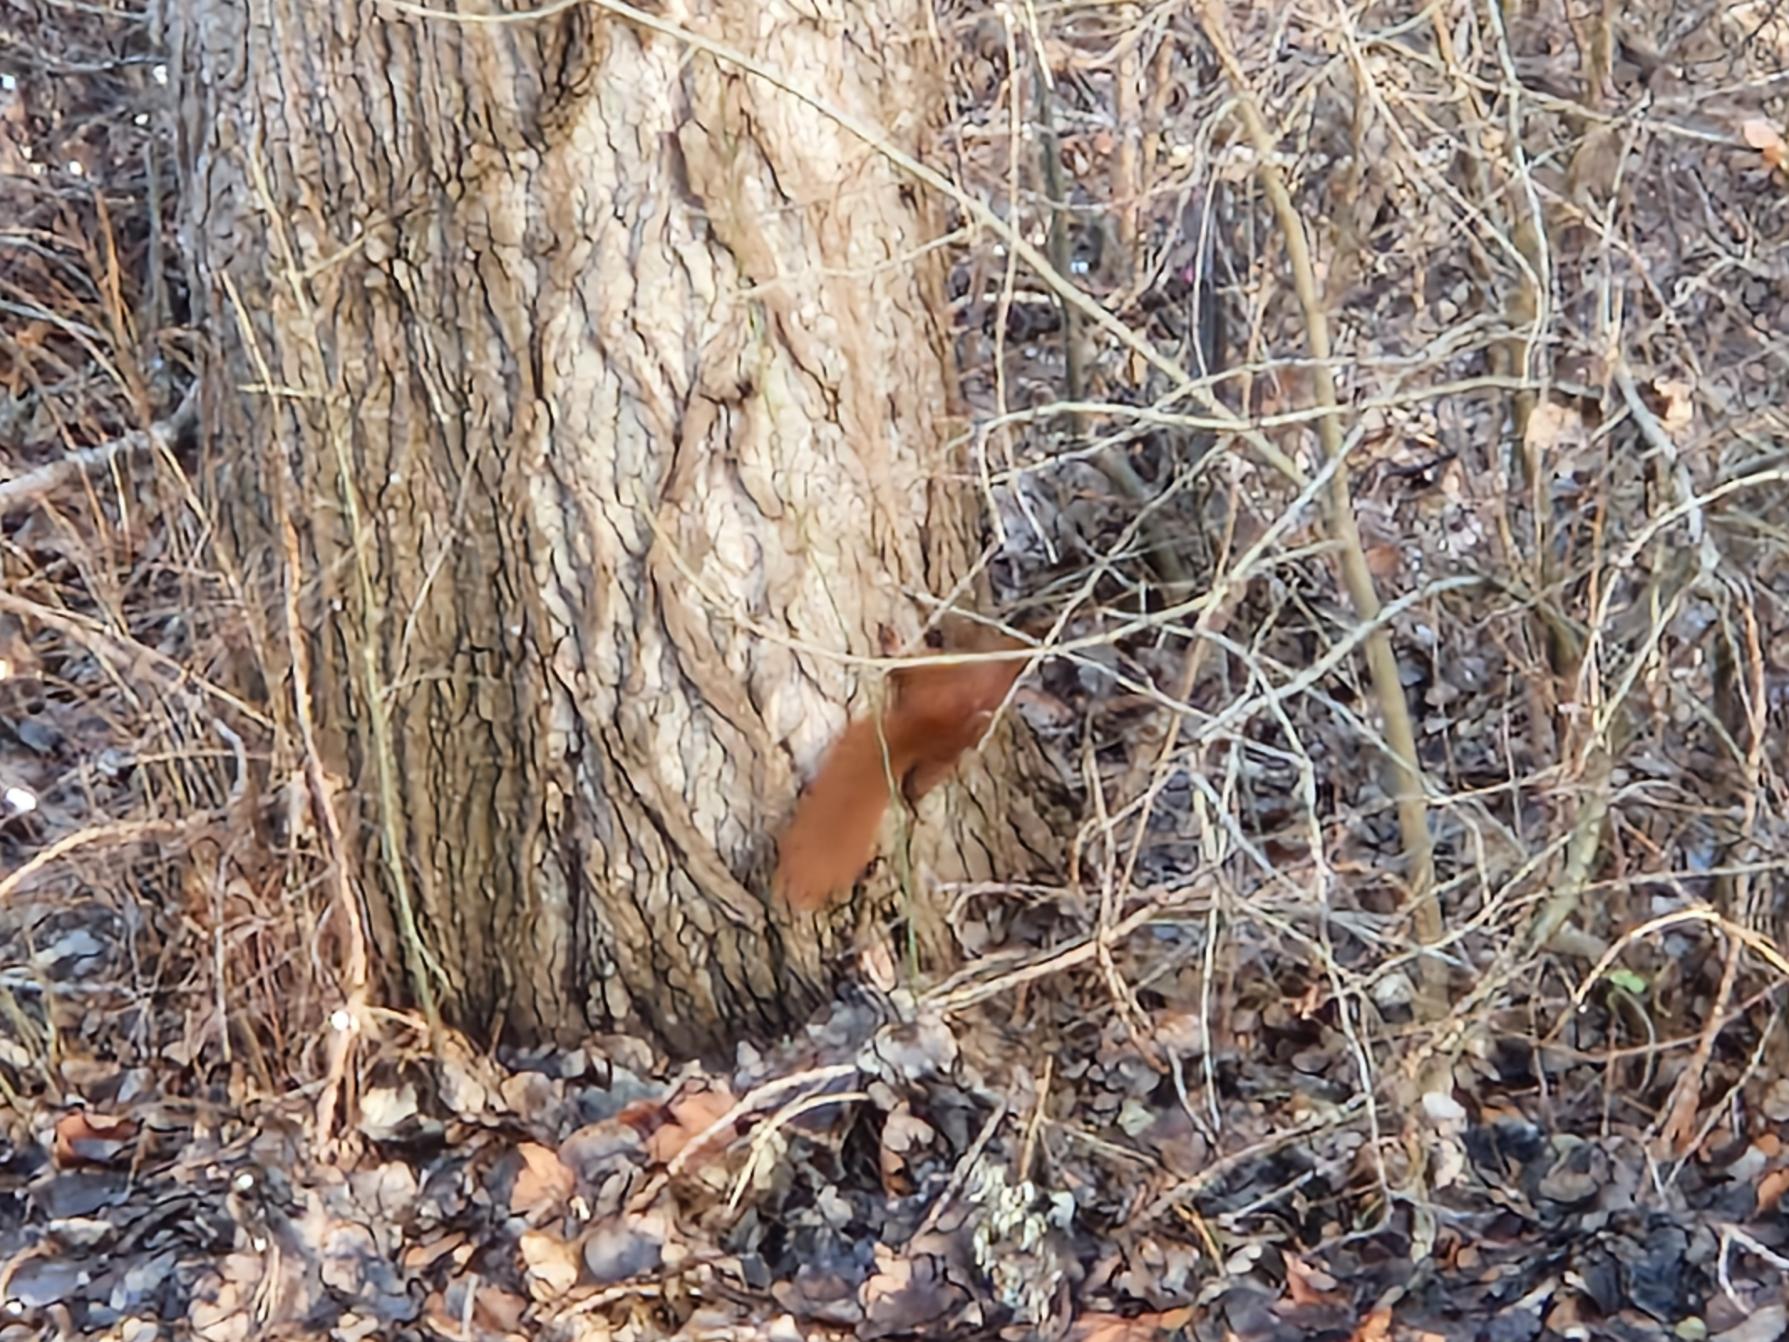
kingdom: Animalia
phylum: Chordata
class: Mammalia
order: Rodentia
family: Sciuridae
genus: Sciurus
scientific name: Sciurus vulgaris
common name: Egern
